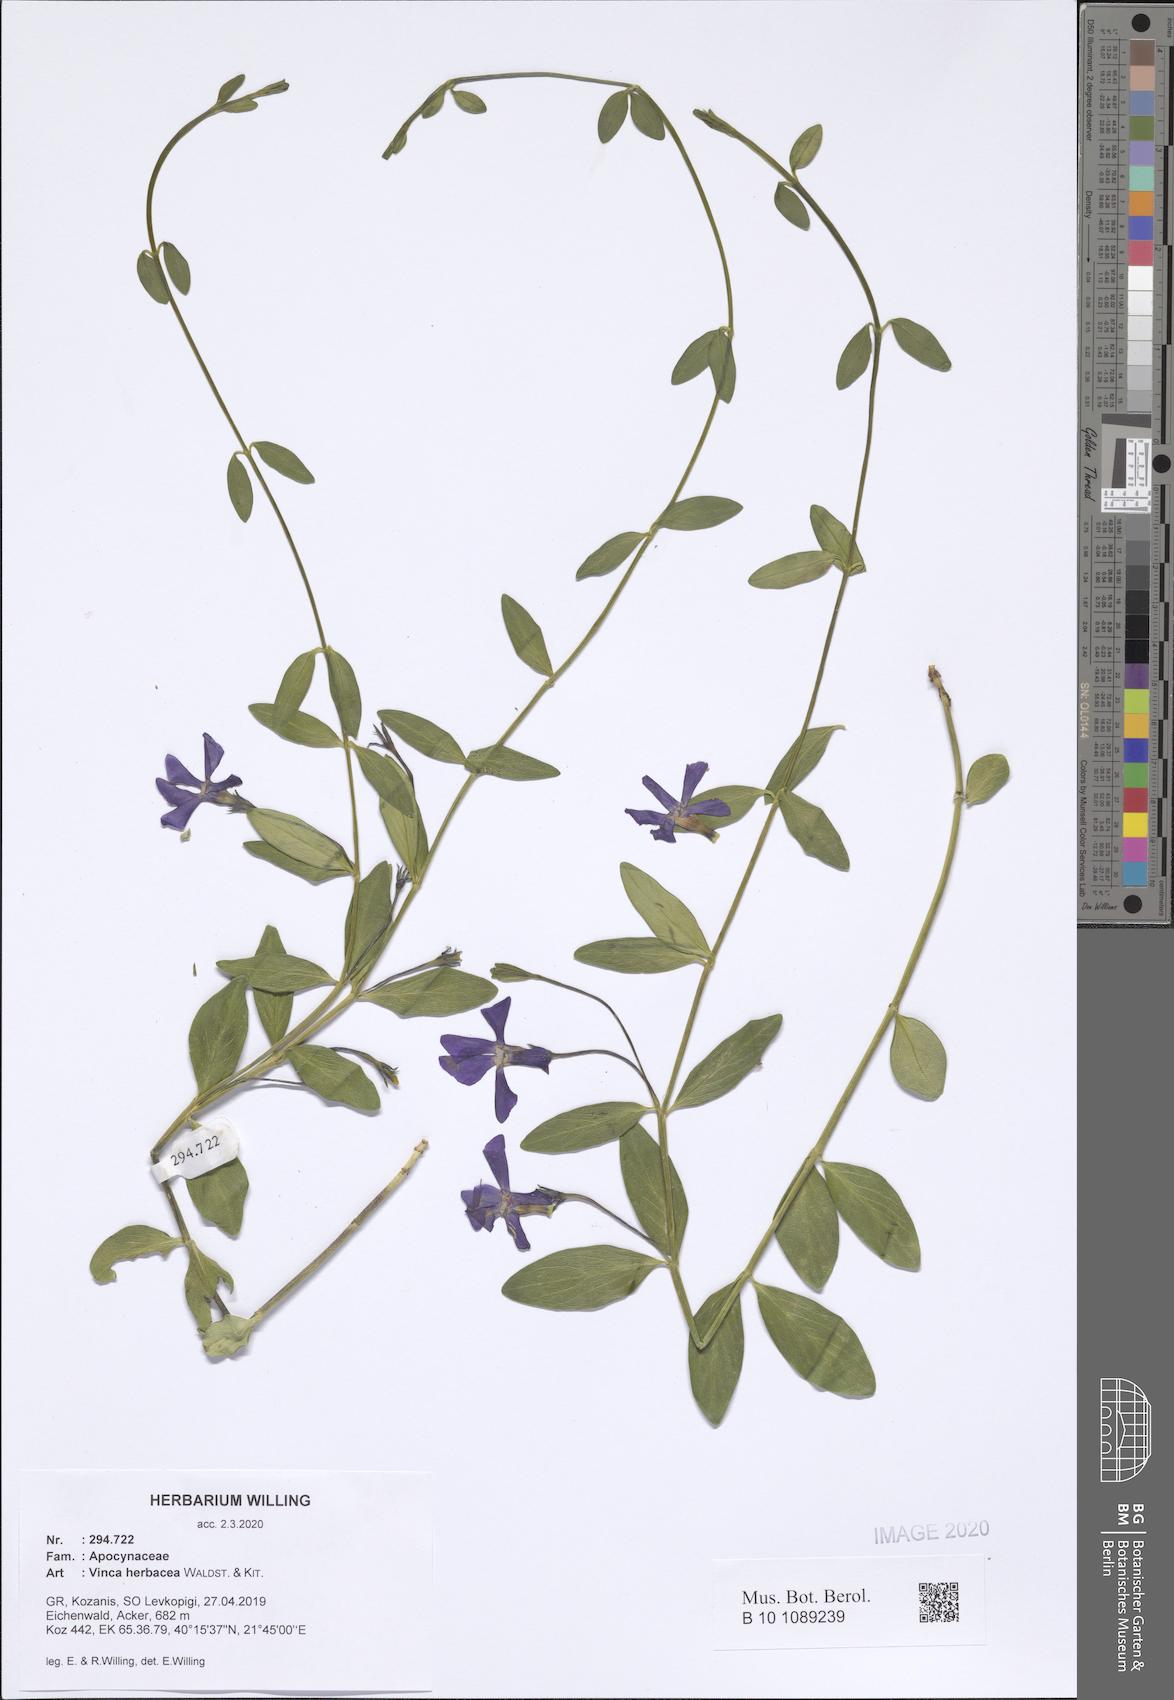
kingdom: Plantae
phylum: Tracheophyta
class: Magnoliopsida
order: Gentianales
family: Apocynaceae
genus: Vinca
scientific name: Vinca herbacea
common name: Herbaceous periwinkle
